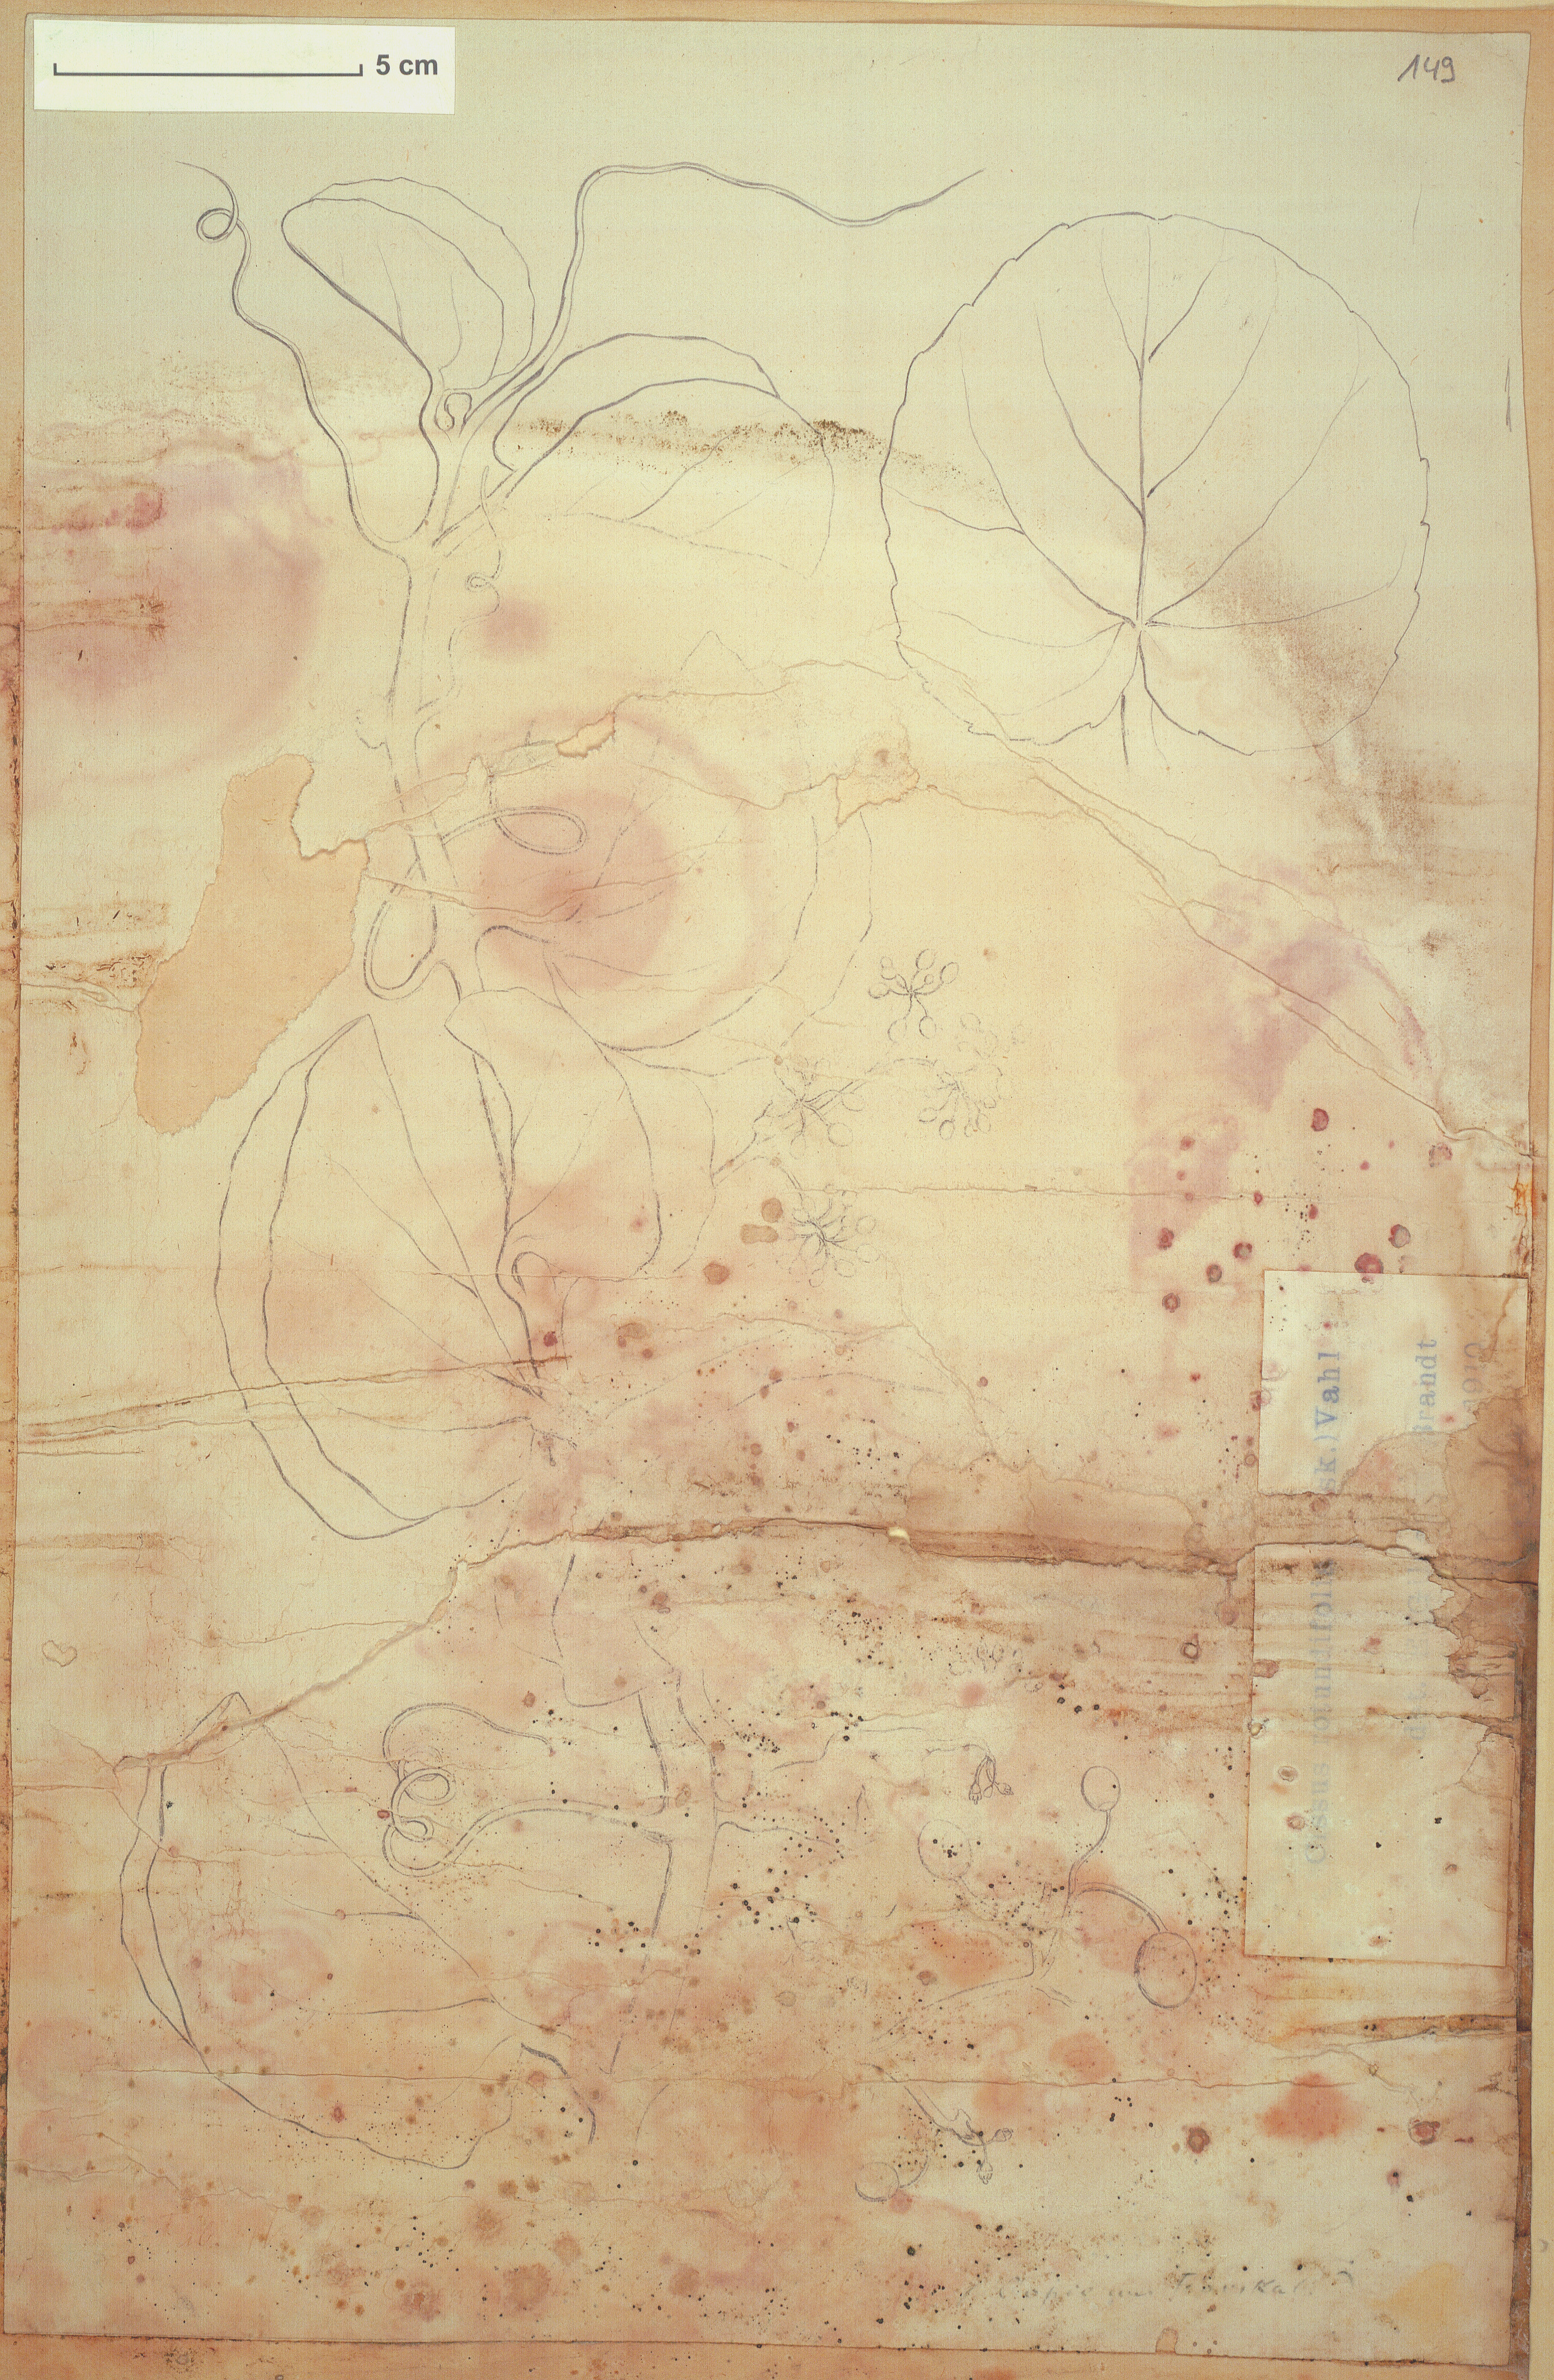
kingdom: Plantae
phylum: Tracheophyta
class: Magnoliopsida
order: Vitales
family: Vitaceae
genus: Cissus
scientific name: Cissus rotundifolia
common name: Arabian wax cissus
